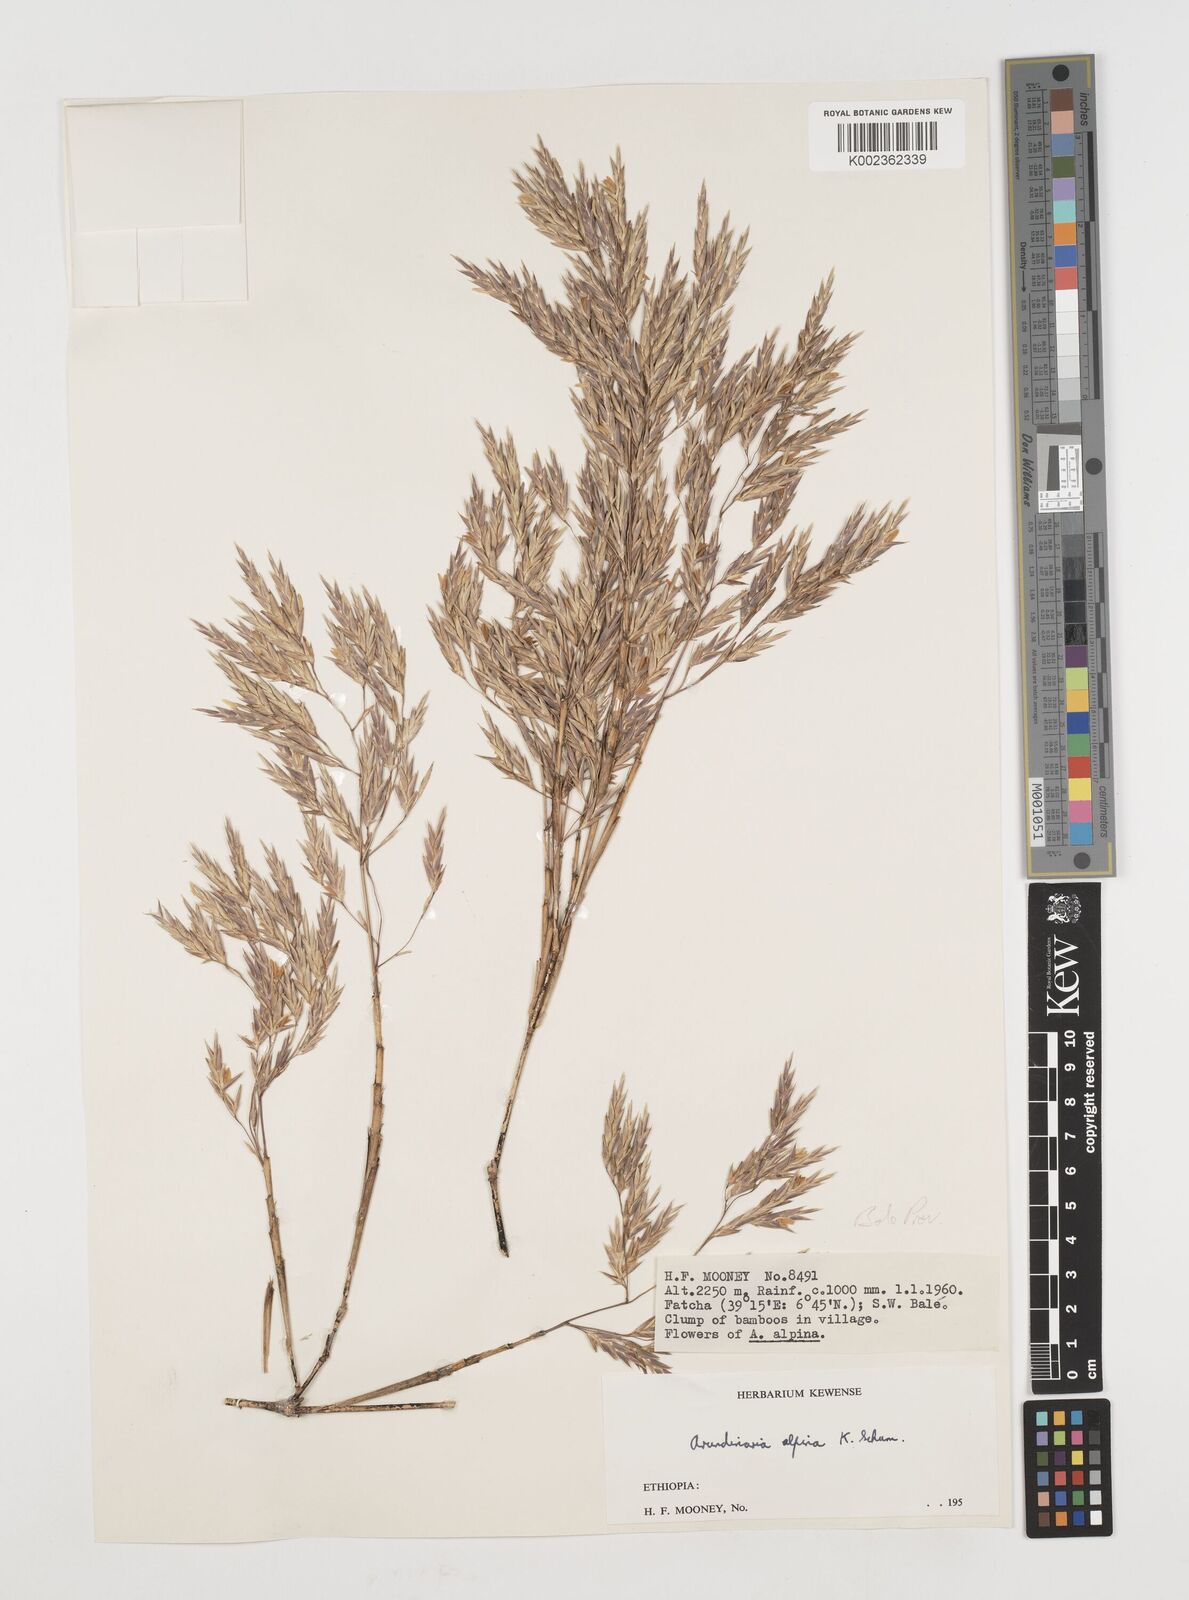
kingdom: Plantae
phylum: Tracheophyta
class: Liliopsida
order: Poales
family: Poaceae
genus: Oldeania
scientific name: Oldeania alpina
